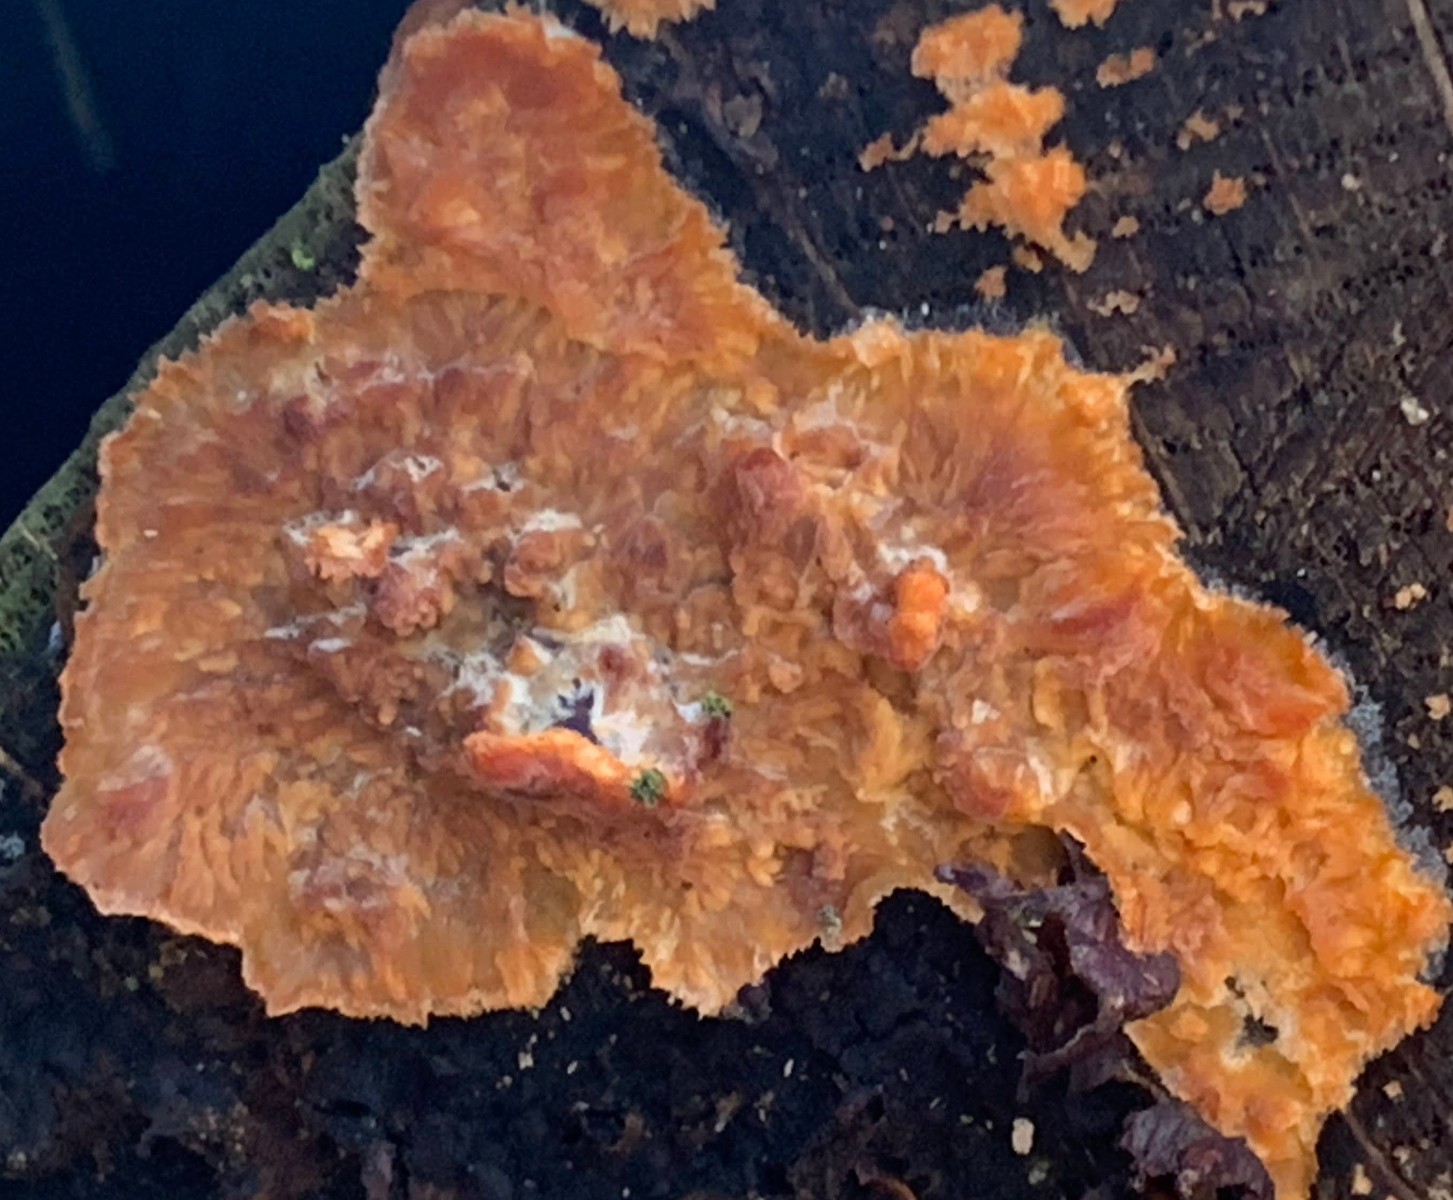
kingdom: Fungi
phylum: Basidiomycota
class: Agaricomycetes
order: Polyporales
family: Meruliaceae
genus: Phlebia
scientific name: Phlebia radiata
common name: stråle-åresvamp
